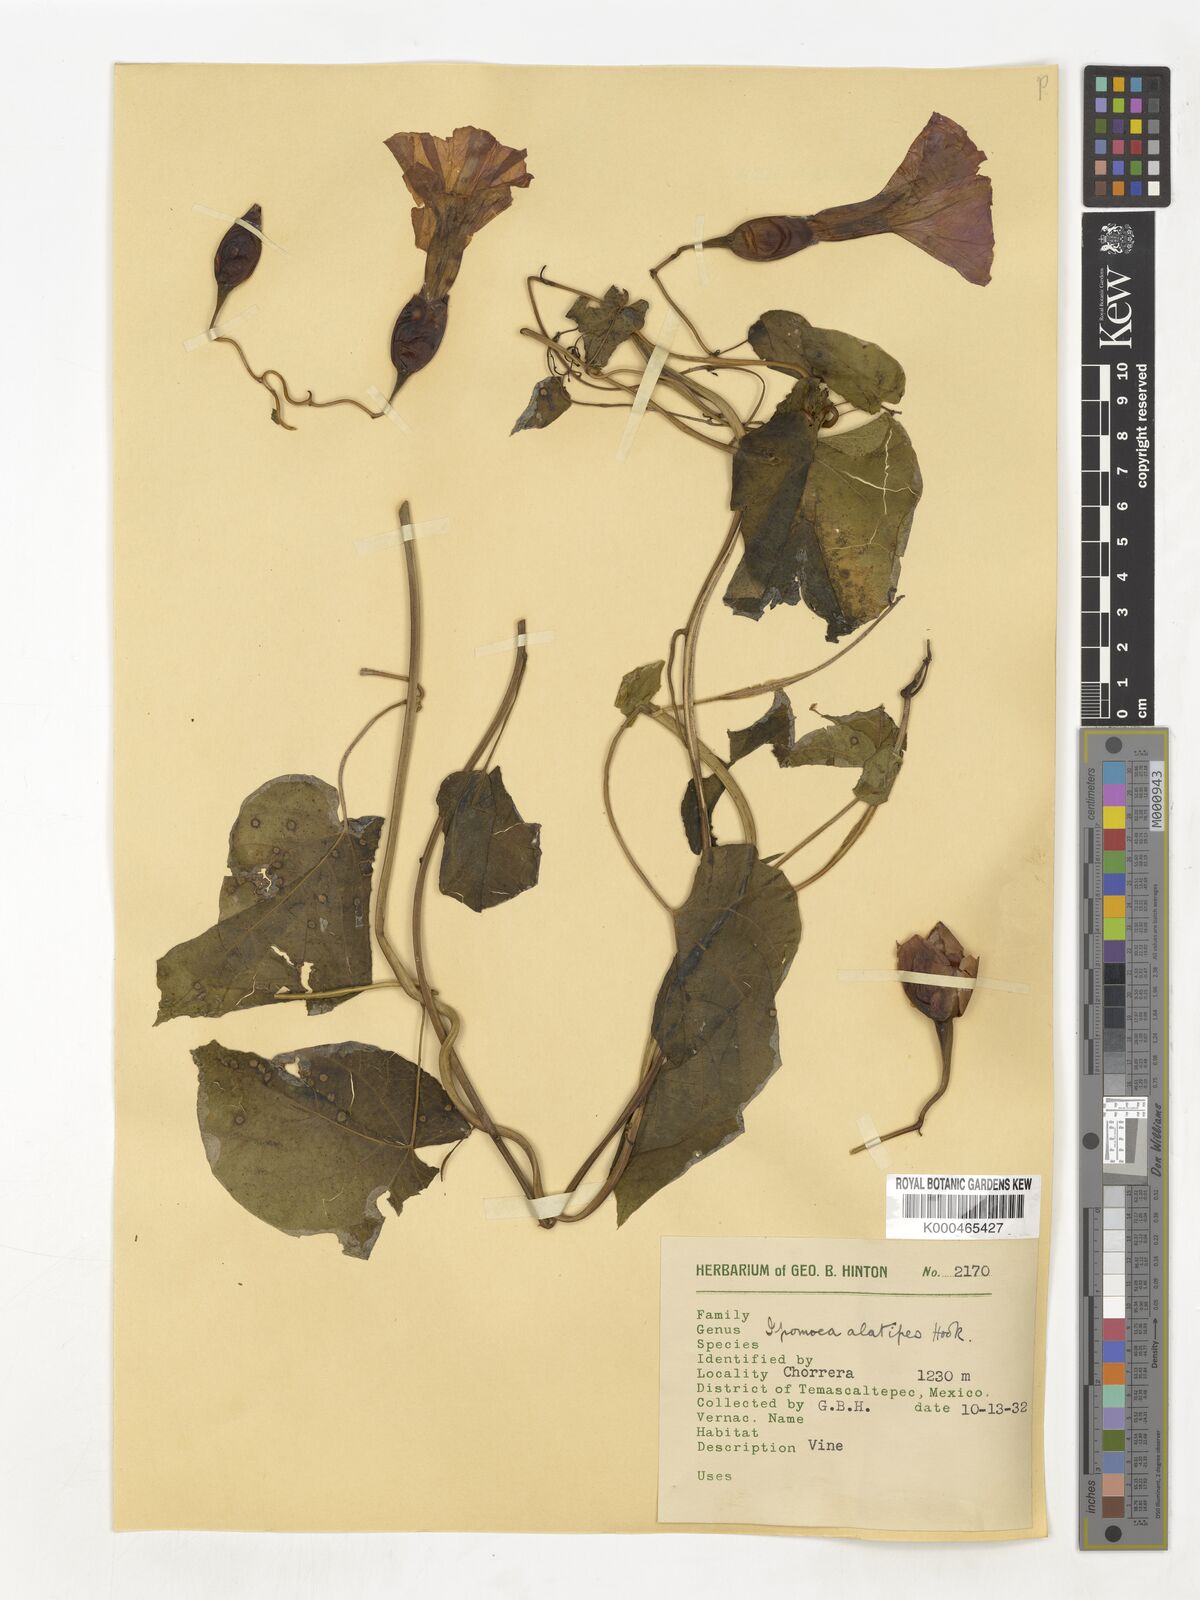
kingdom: Plantae
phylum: Tracheophyta
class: Magnoliopsida
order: Solanales
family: Convolvulaceae
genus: Operculina
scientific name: Operculina
